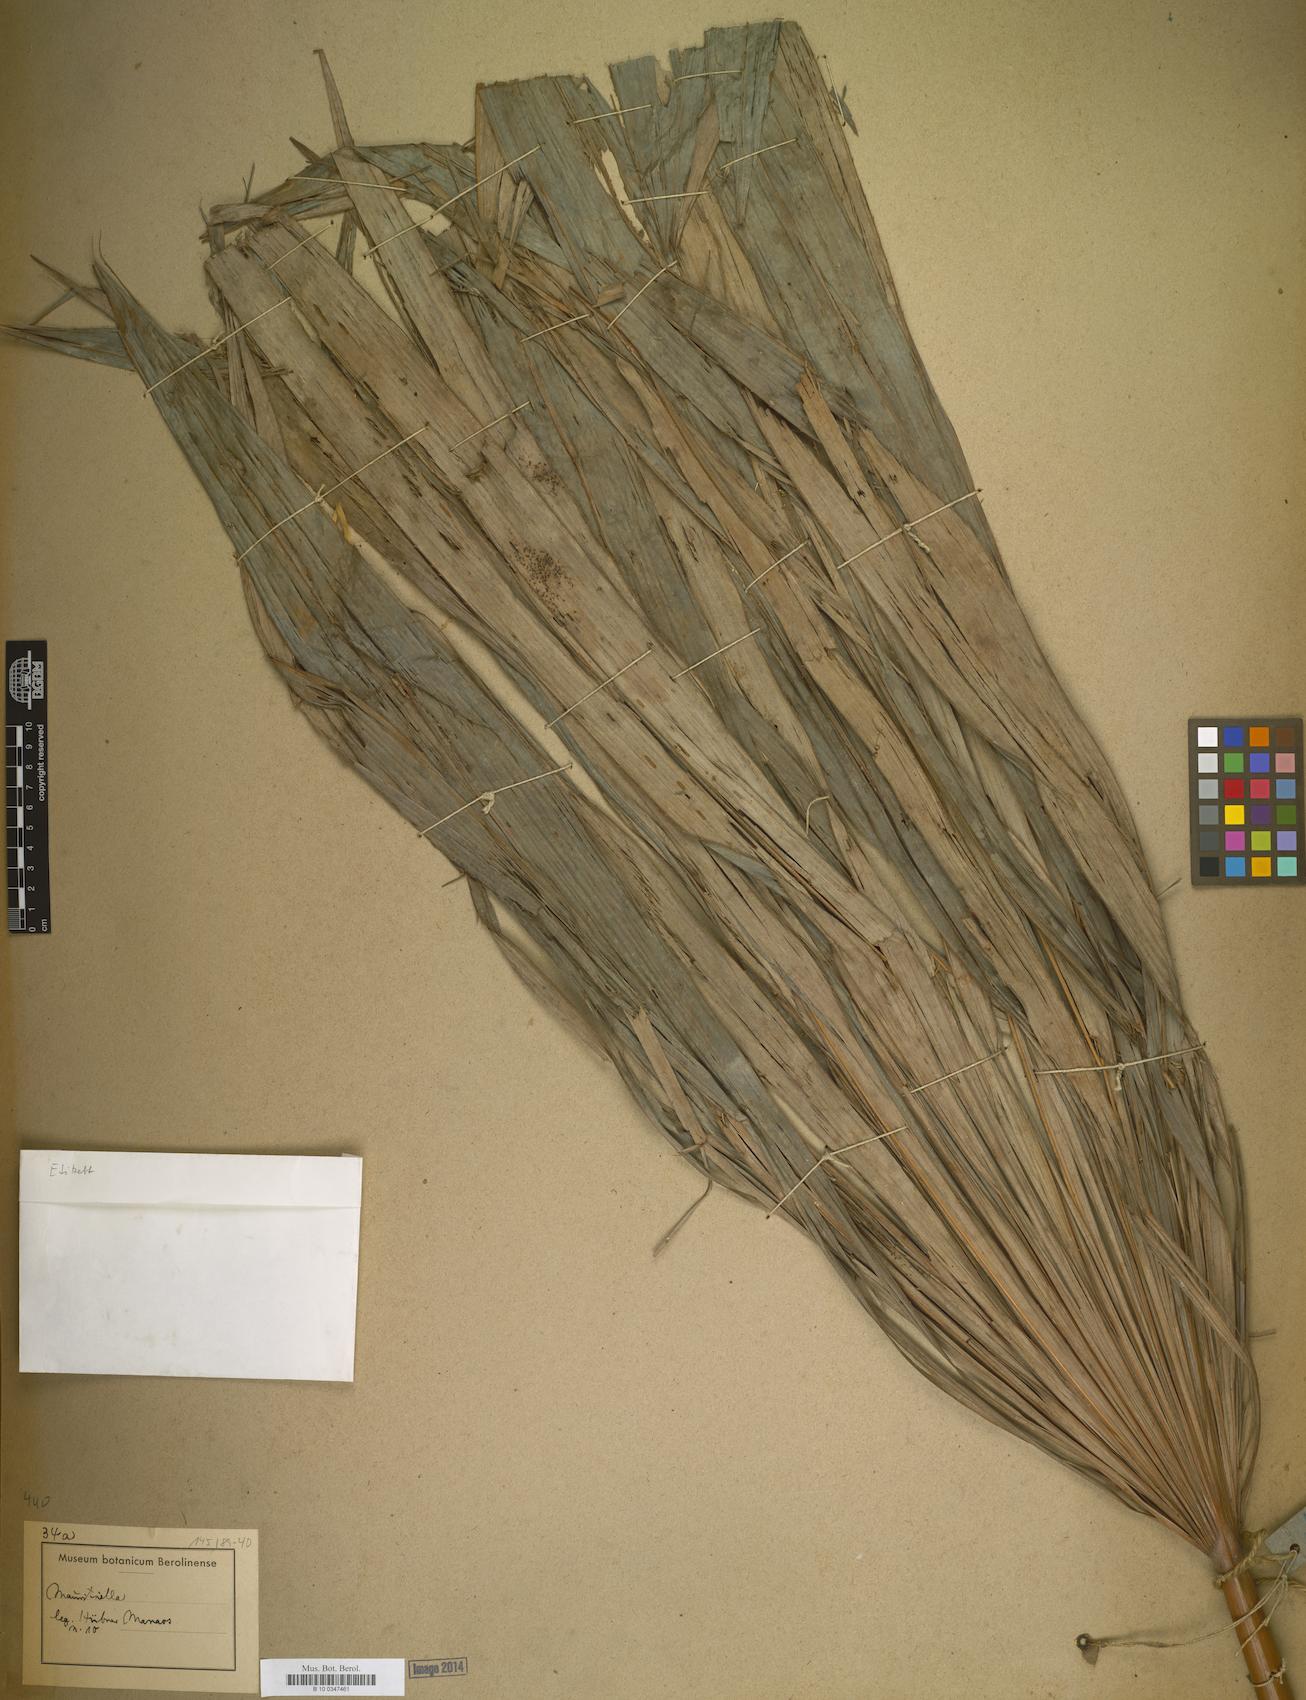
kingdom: Plantae
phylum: Tracheophyta
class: Liliopsida
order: Arecales
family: Arecaceae
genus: Mauritiella
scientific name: Mauritiella
